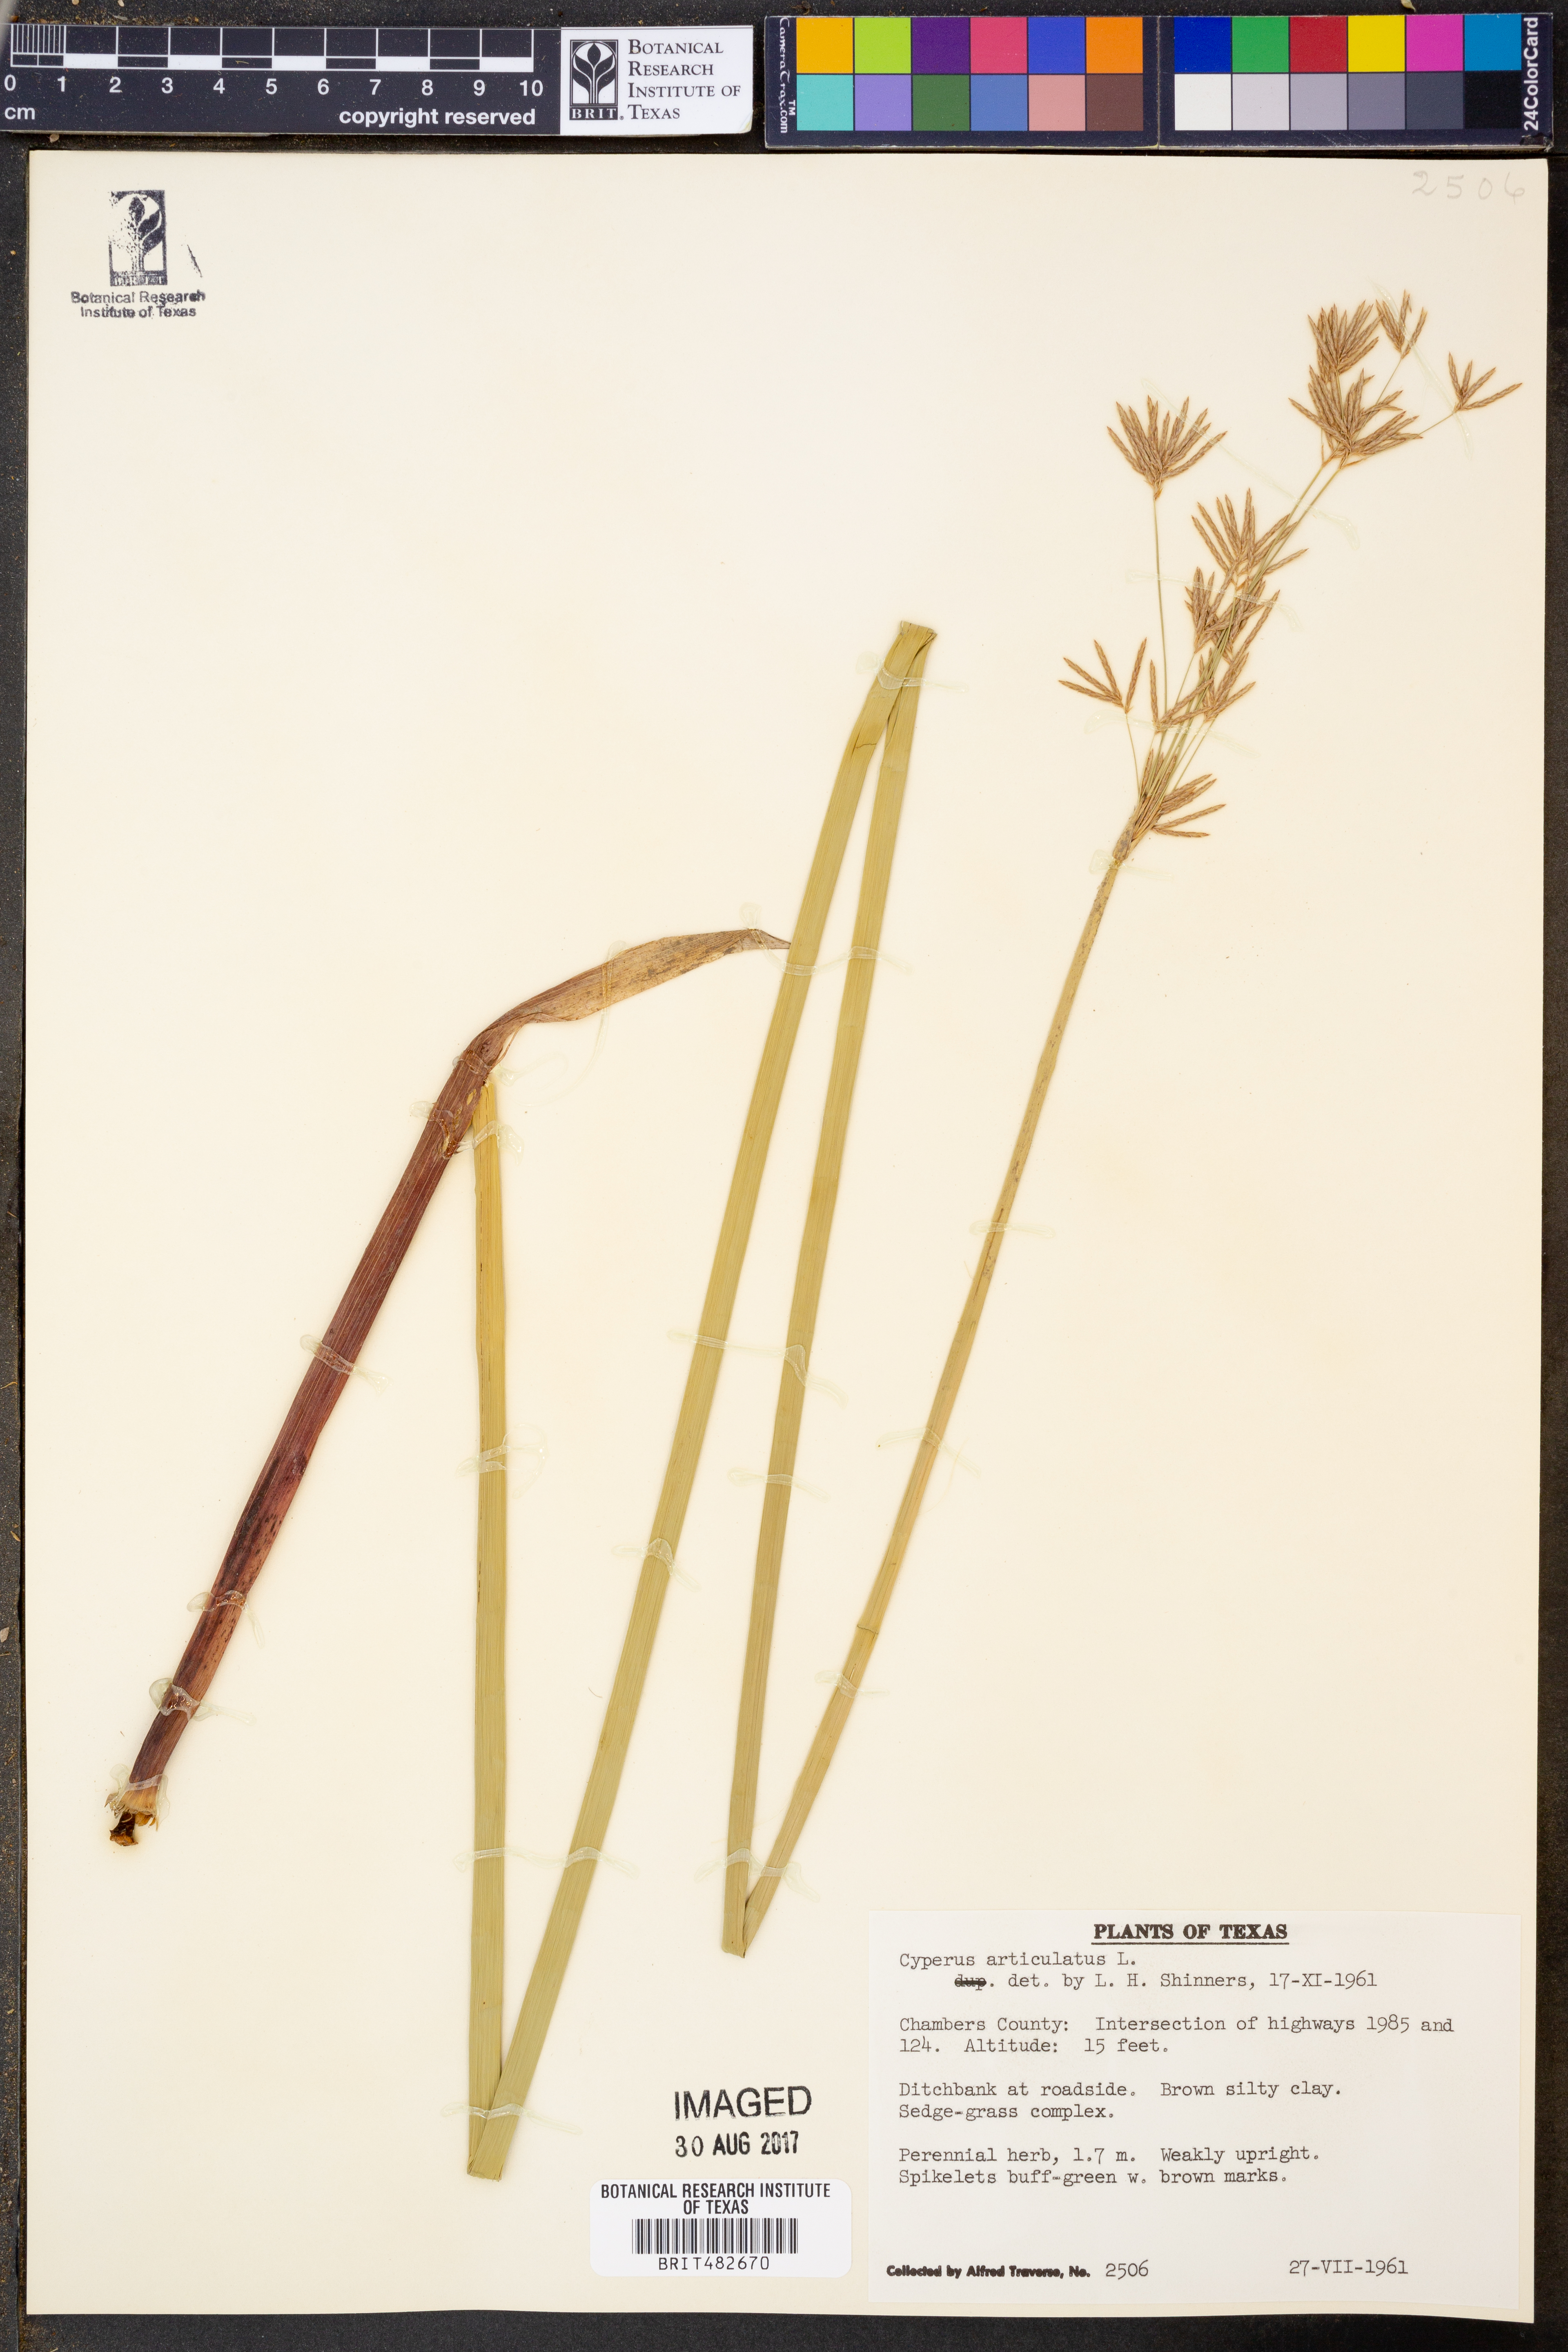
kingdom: Plantae
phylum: Tracheophyta
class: Liliopsida
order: Poales
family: Cyperaceae
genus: Cyperus
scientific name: Cyperus articulatus
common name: Jointed flatsedge
